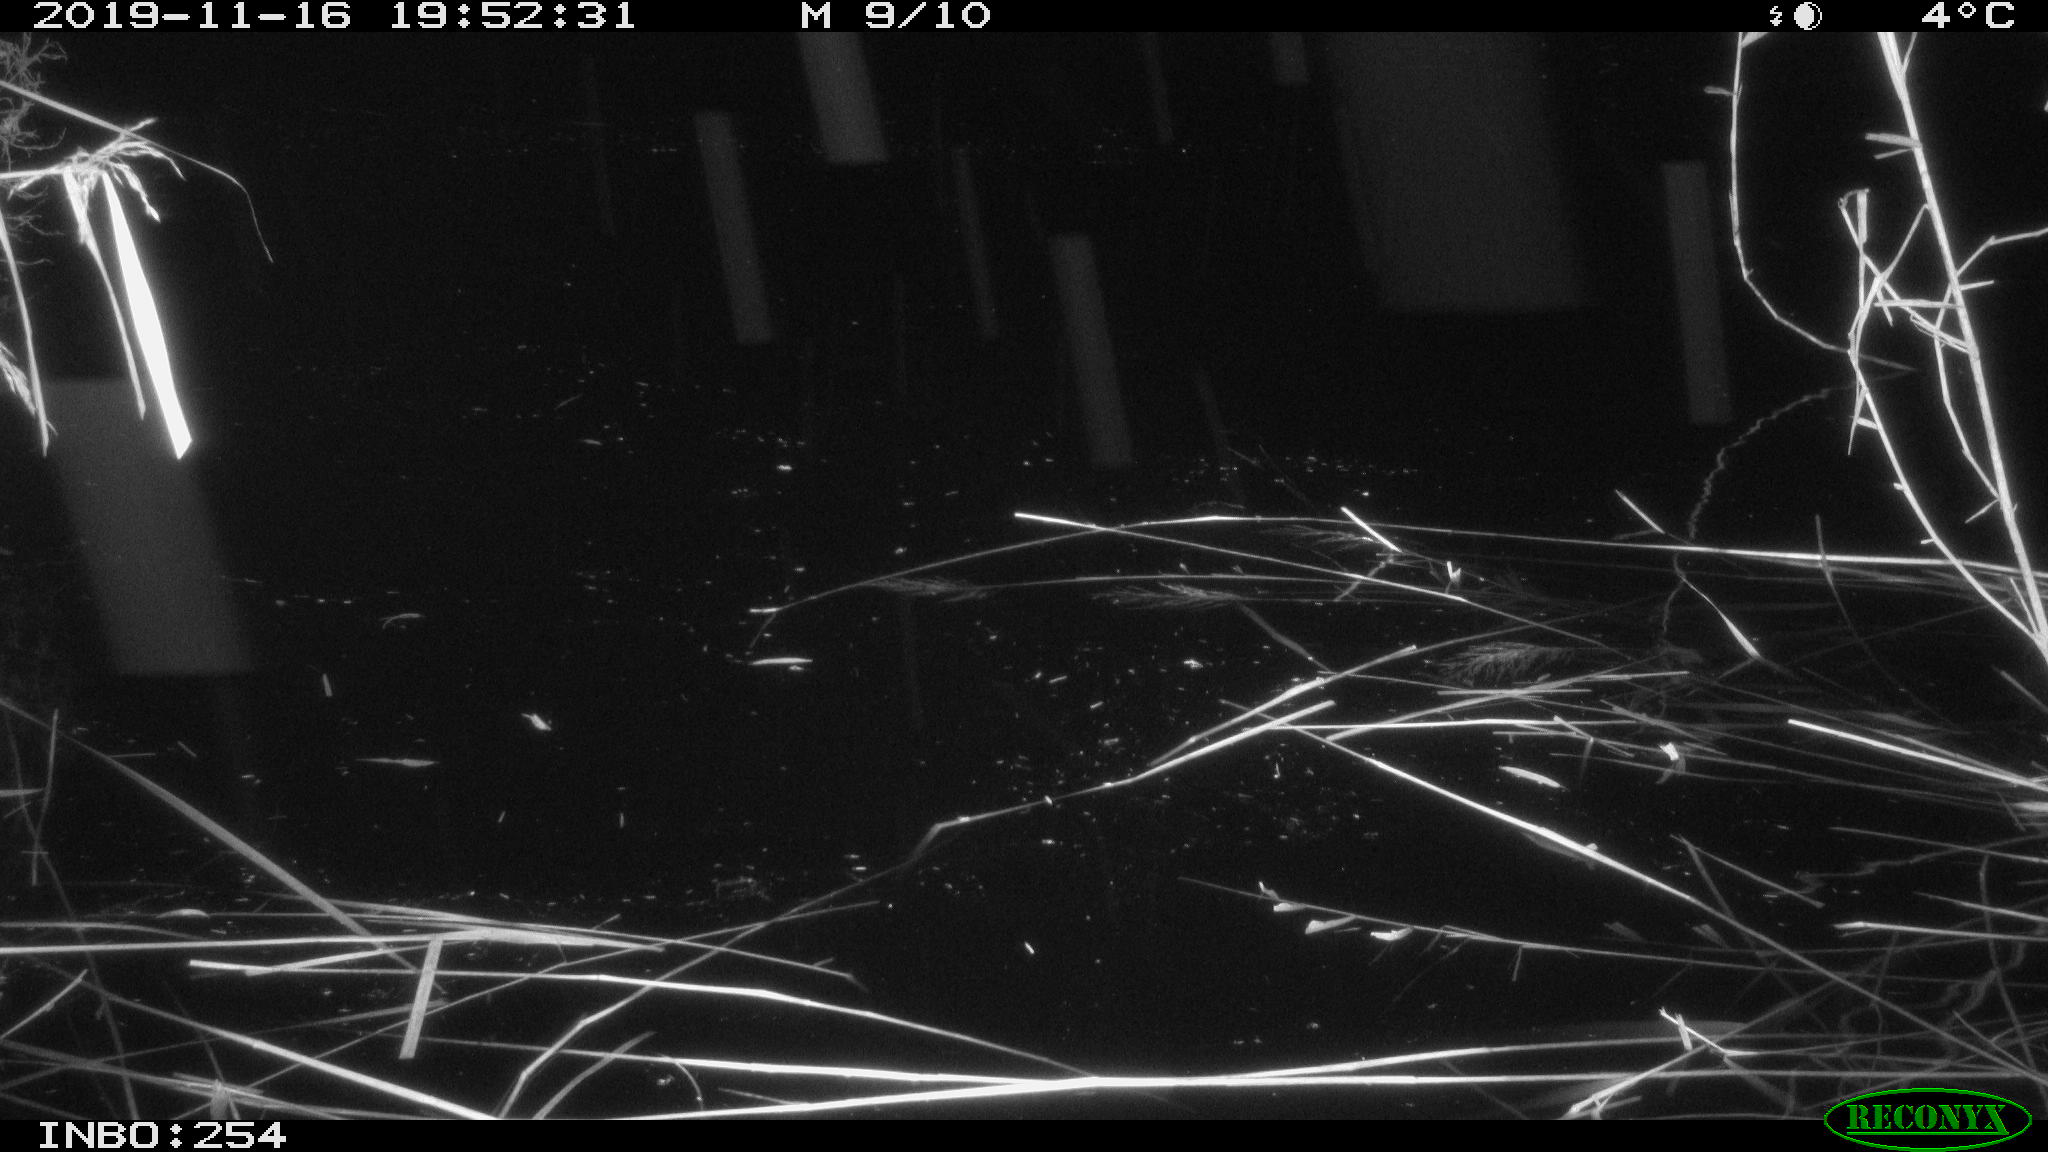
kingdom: Animalia
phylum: Chordata
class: Mammalia
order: Rodentia
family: Muridae
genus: Rattus
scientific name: Rattus norvegicus
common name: Brown rat
